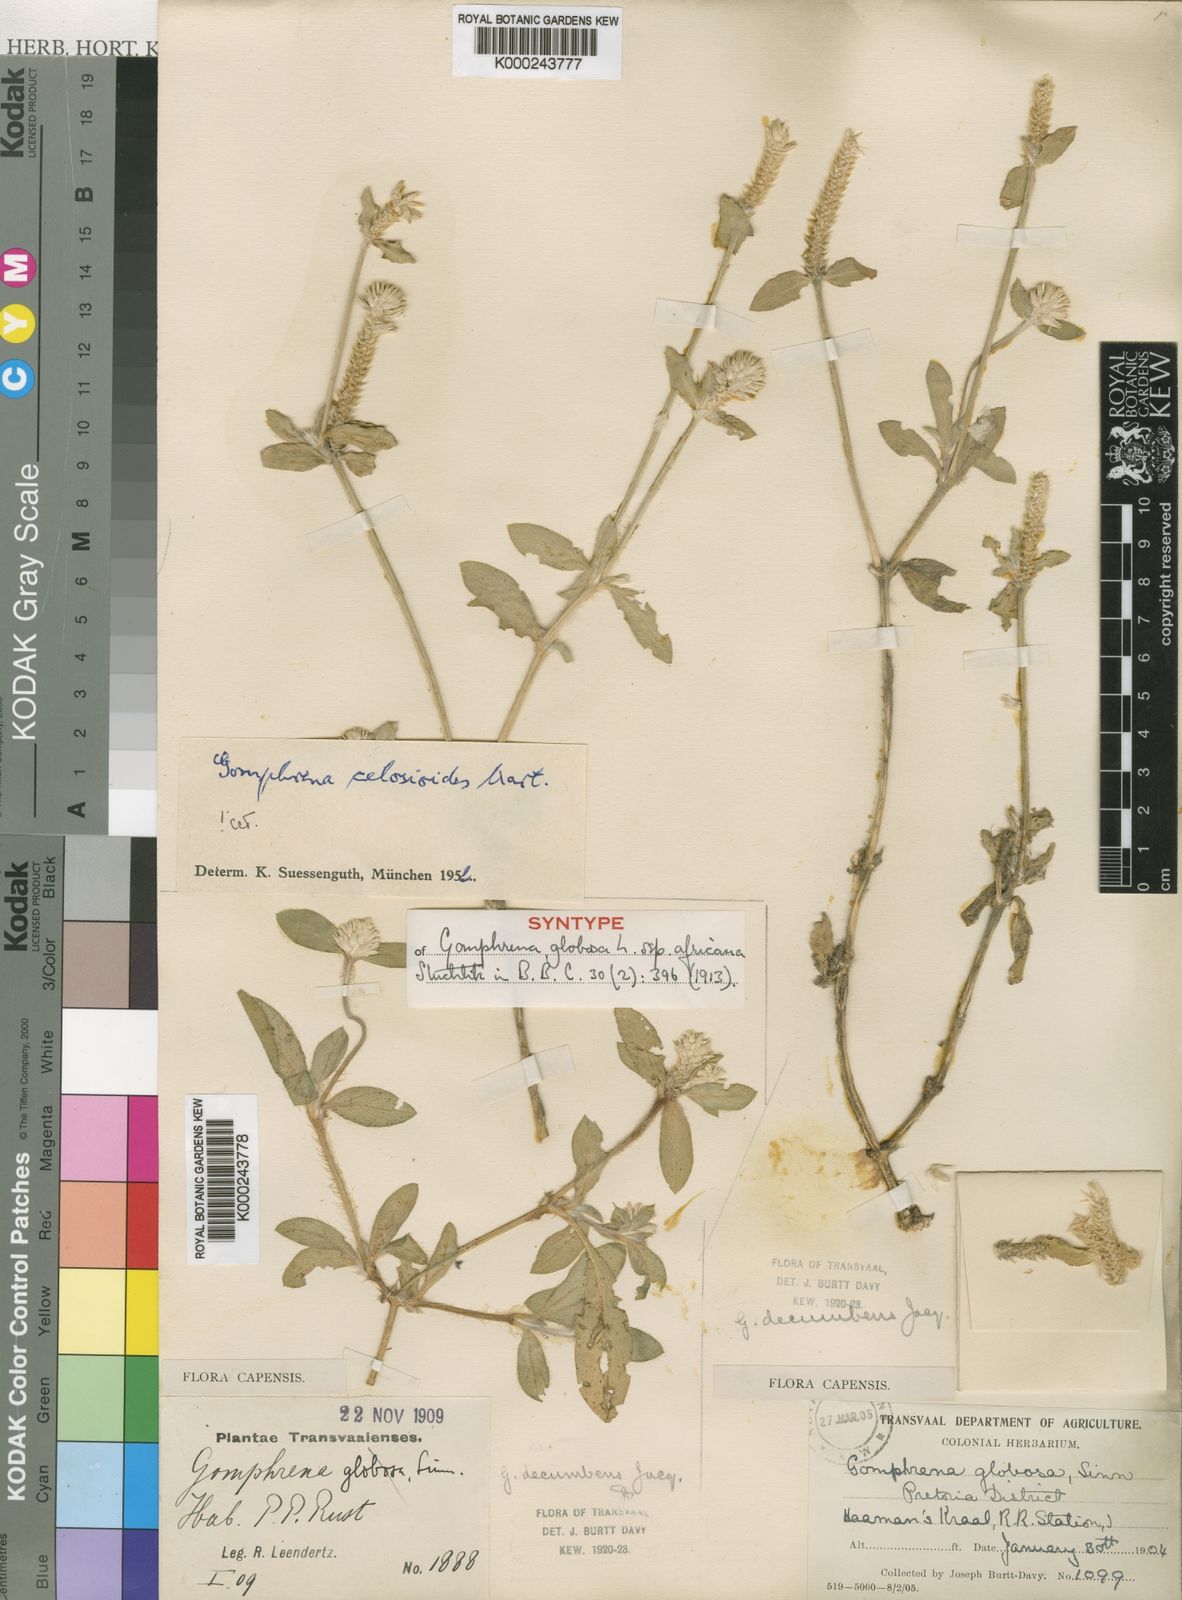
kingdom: Plantae
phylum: Tracheophyta
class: Magnoliopsida
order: Caryophyllales
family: Amaranthaceae
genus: Gomphrena
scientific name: Gomphrena celosioides
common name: Gomphrena-weed
